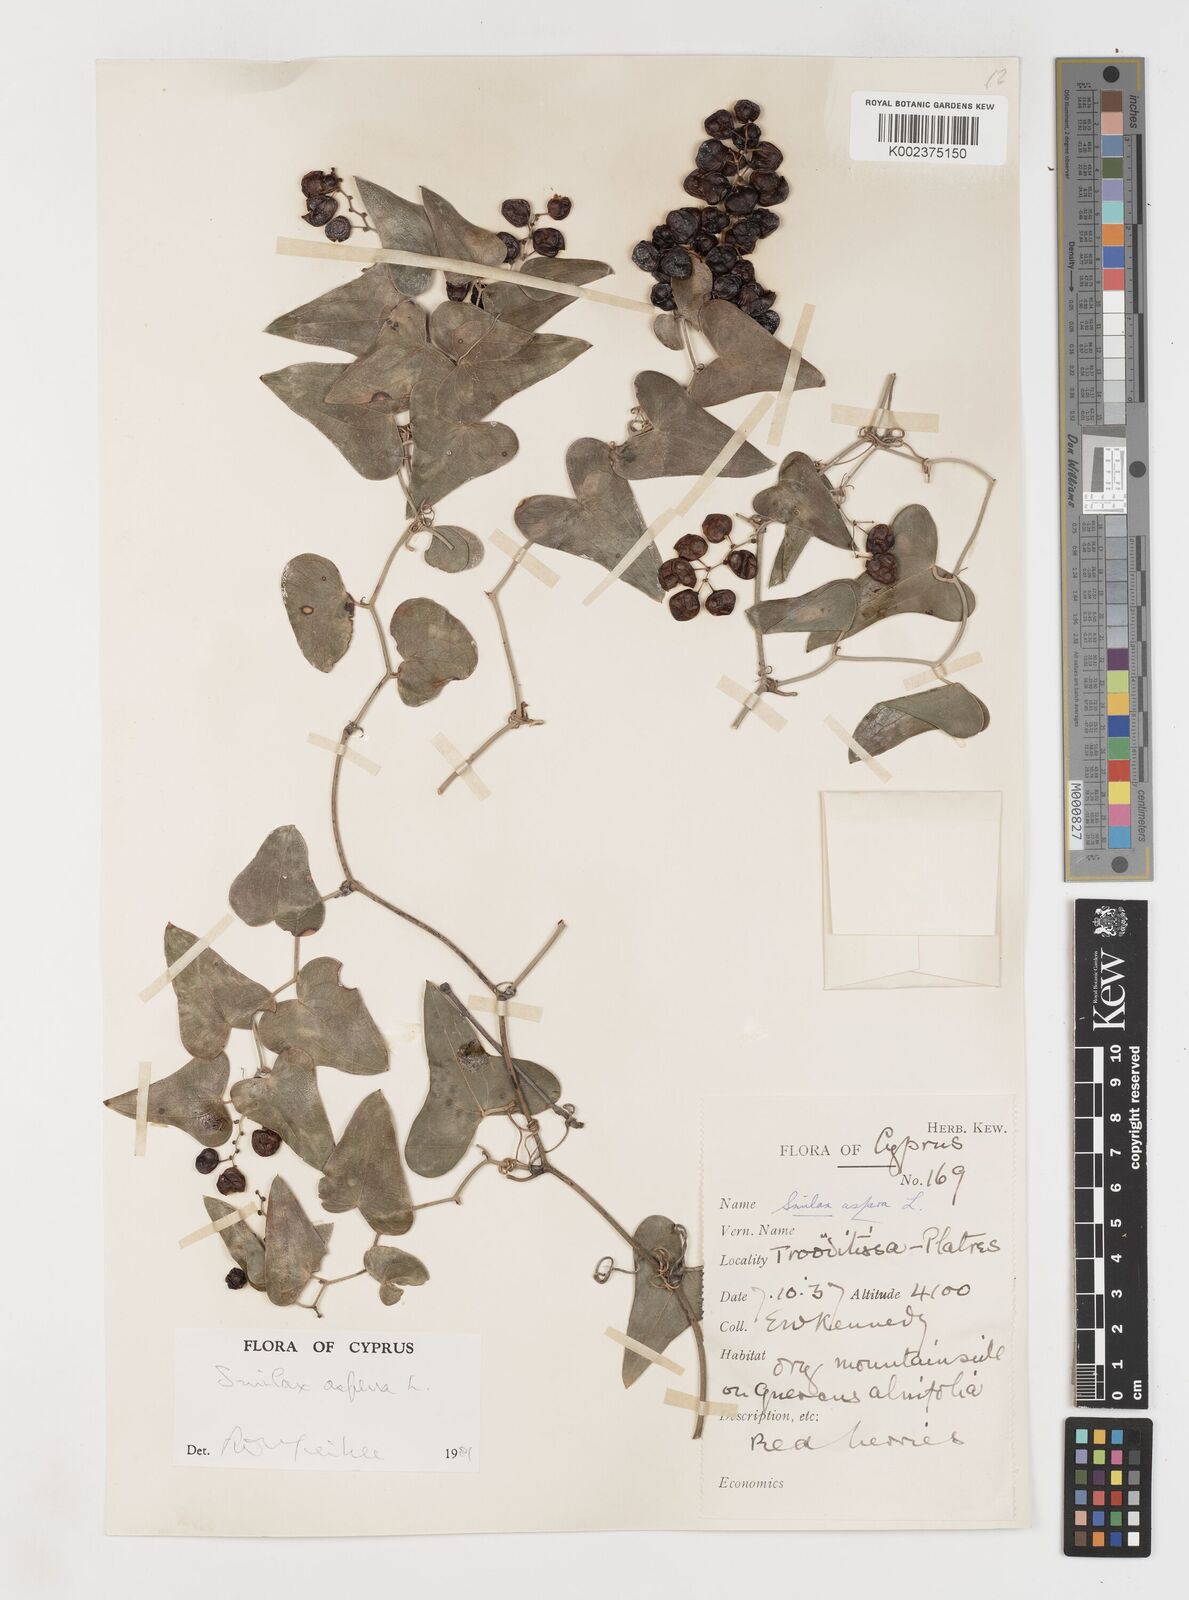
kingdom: Plantae
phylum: Tracheophyta
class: Liliopsida
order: Liliales
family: Smilacaceae
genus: Smilax
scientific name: Smilax aspera
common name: Common smilax
